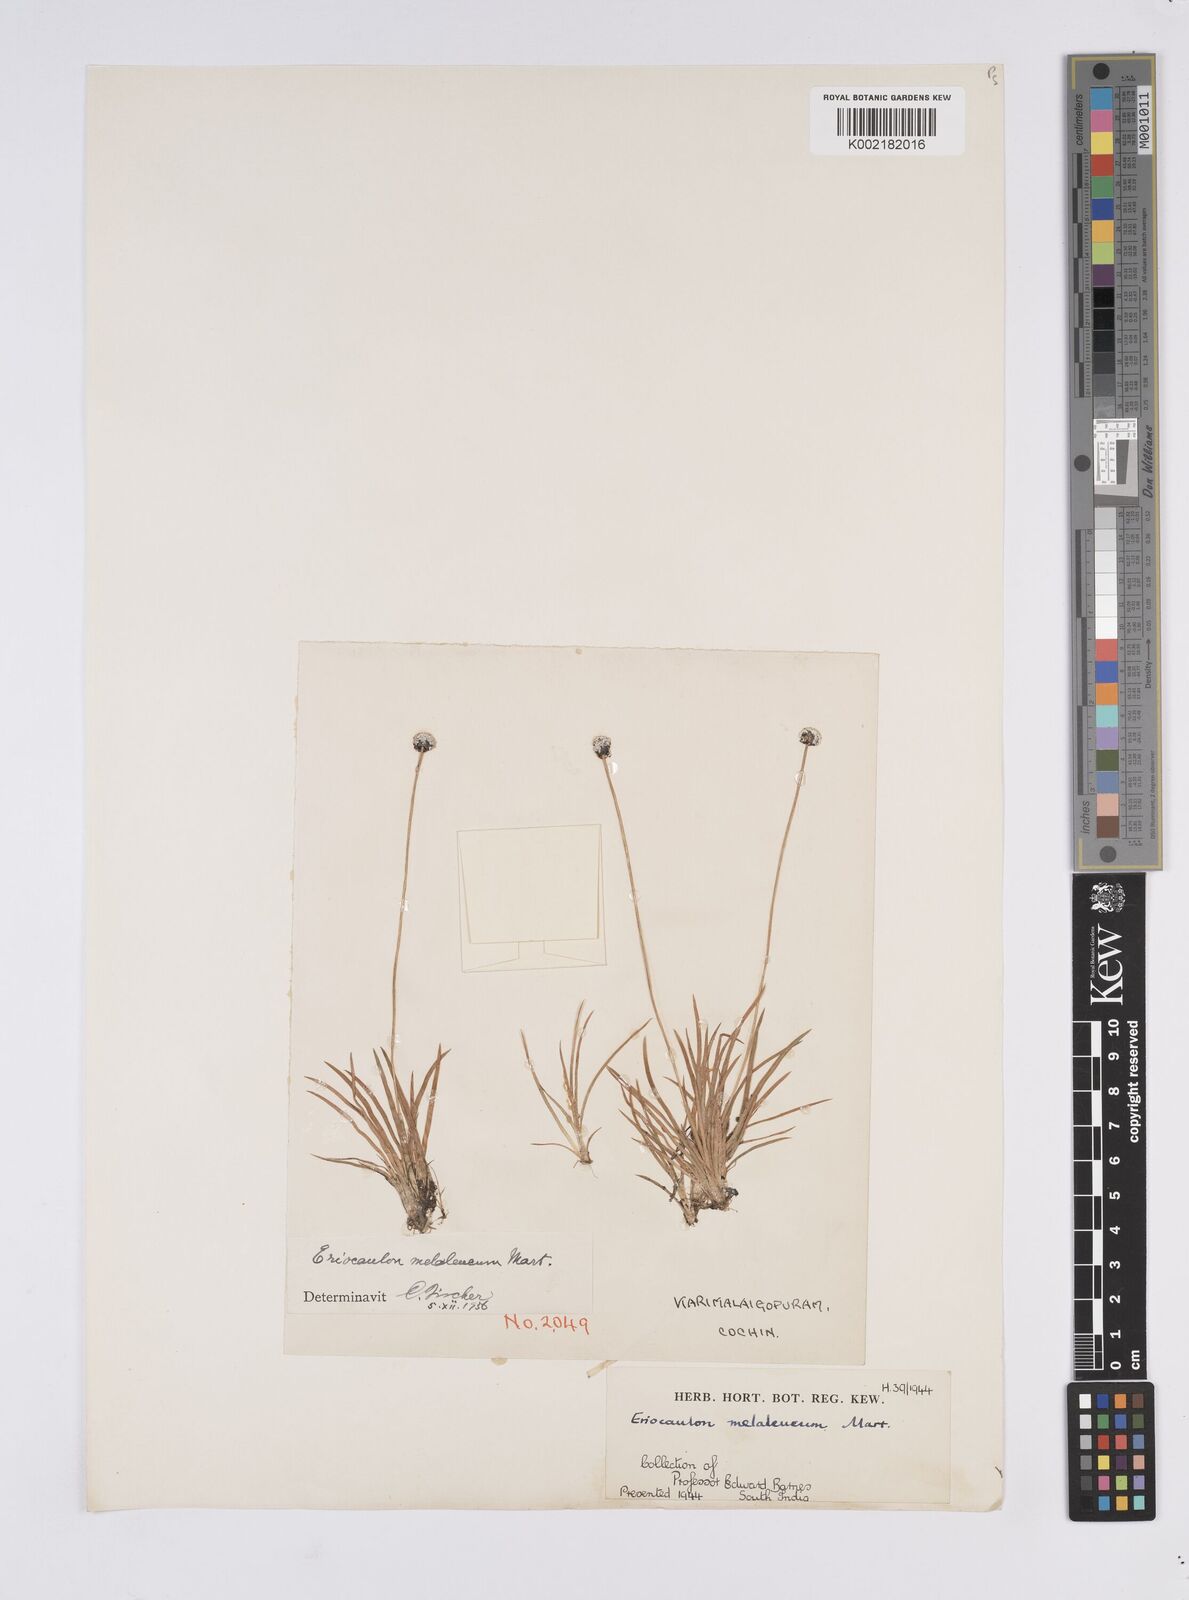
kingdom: Plantae
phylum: Tracheophyta
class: Liliopsida
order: Poales
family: Eriocaulaceae
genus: Eriocaulon
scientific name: Eriocaulon leucomelas
